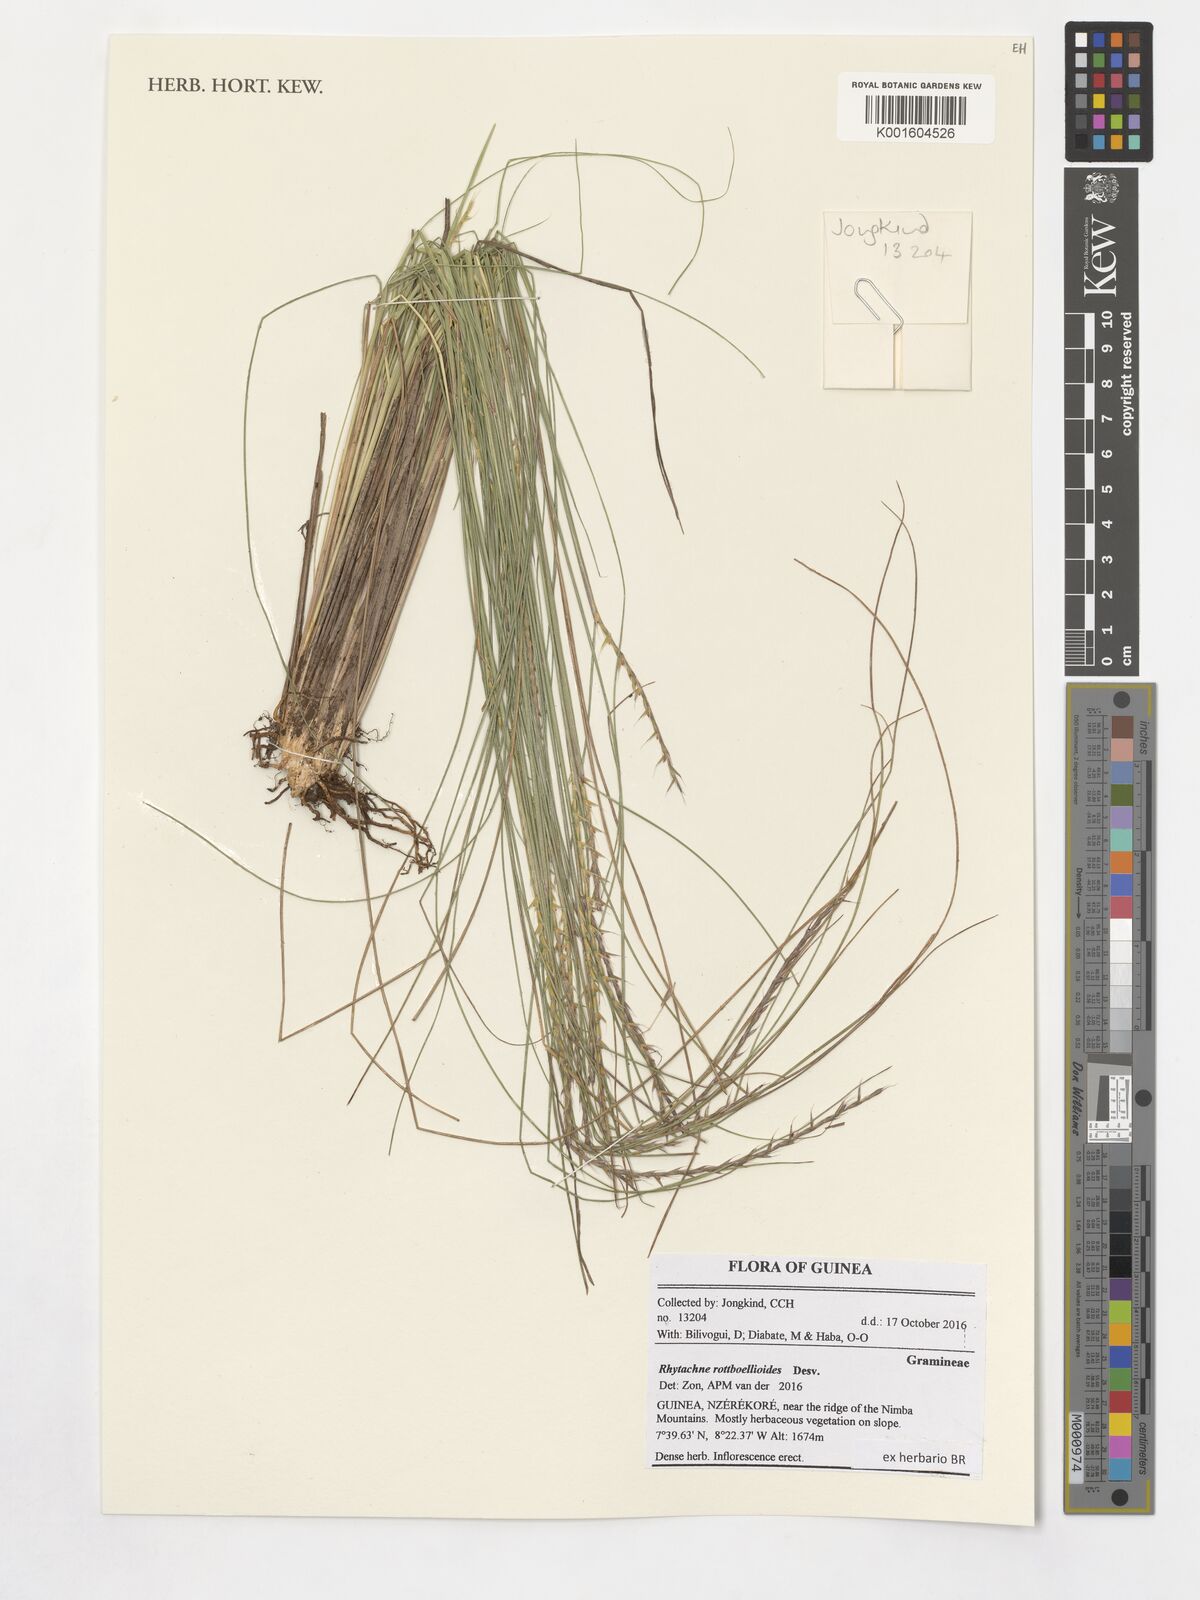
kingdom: Plantae
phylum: Tracheophyta
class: Liliopsida
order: Poales
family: Poaceae
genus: Rhytachne
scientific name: Rhytachne rottboellioides
